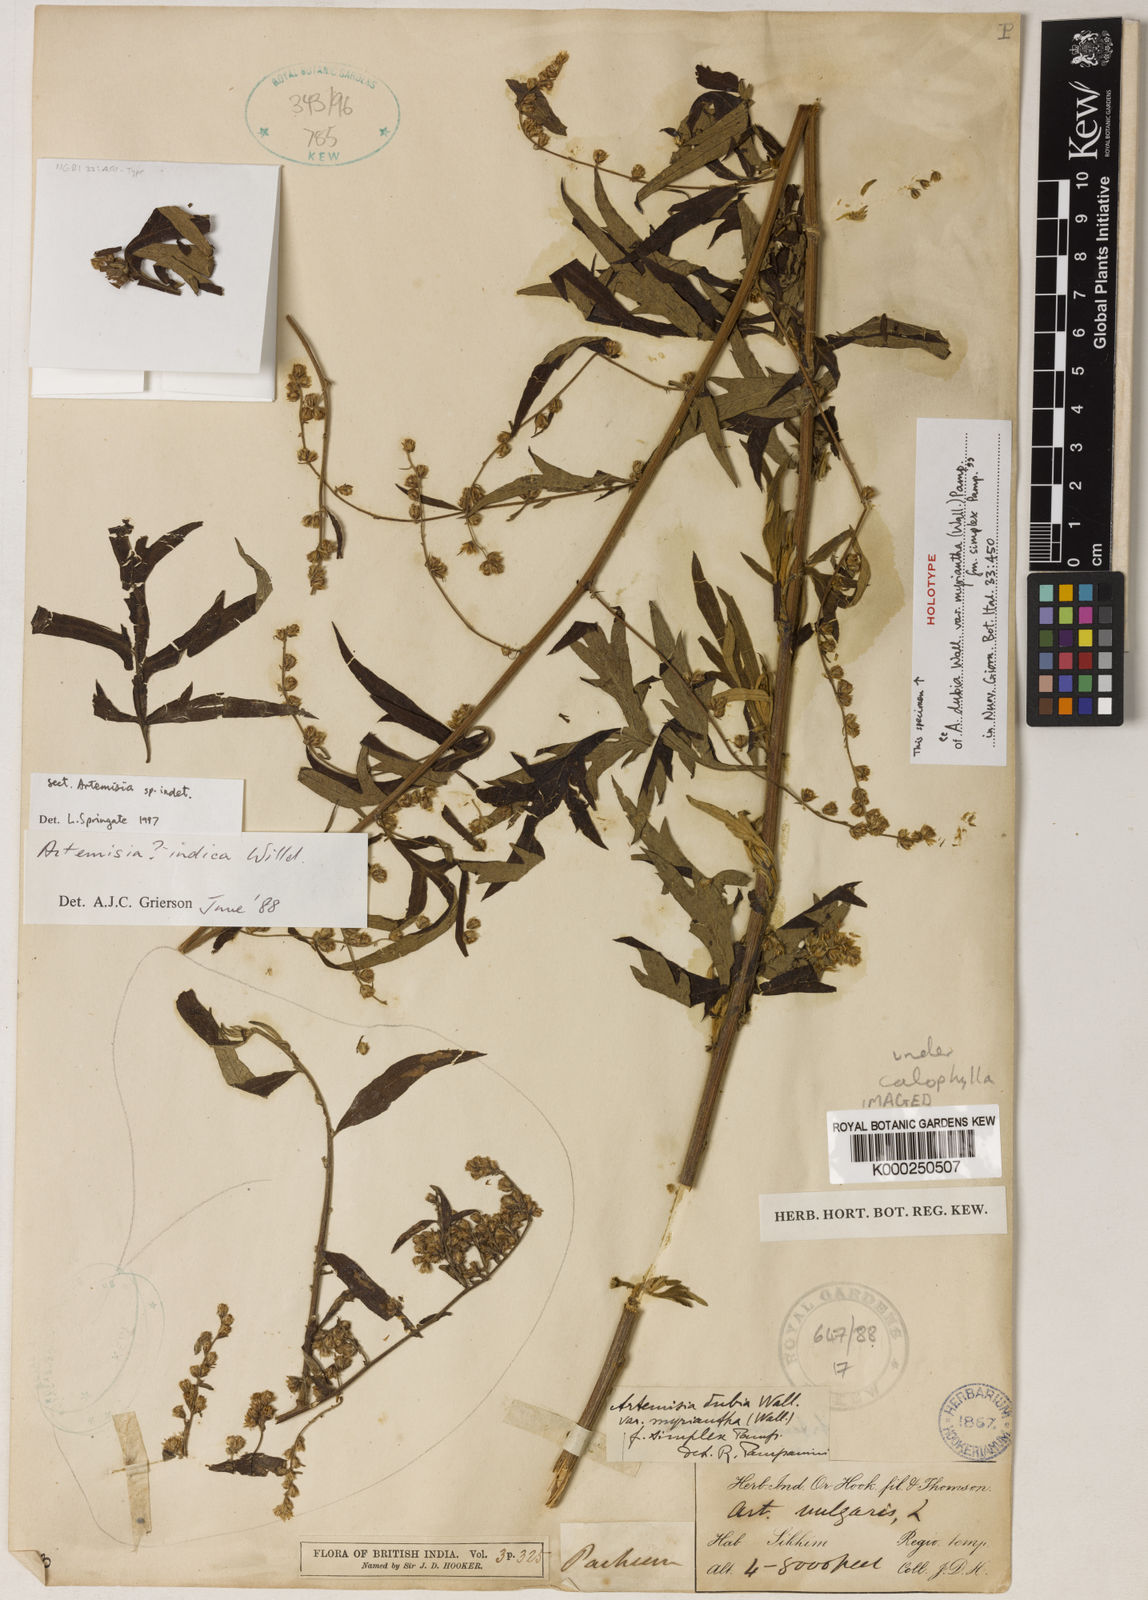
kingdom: Plantae
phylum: Tracheophyta
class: Magnoliopsida
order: Asterales
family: Asteraceae
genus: Artemisia
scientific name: Artemisia
